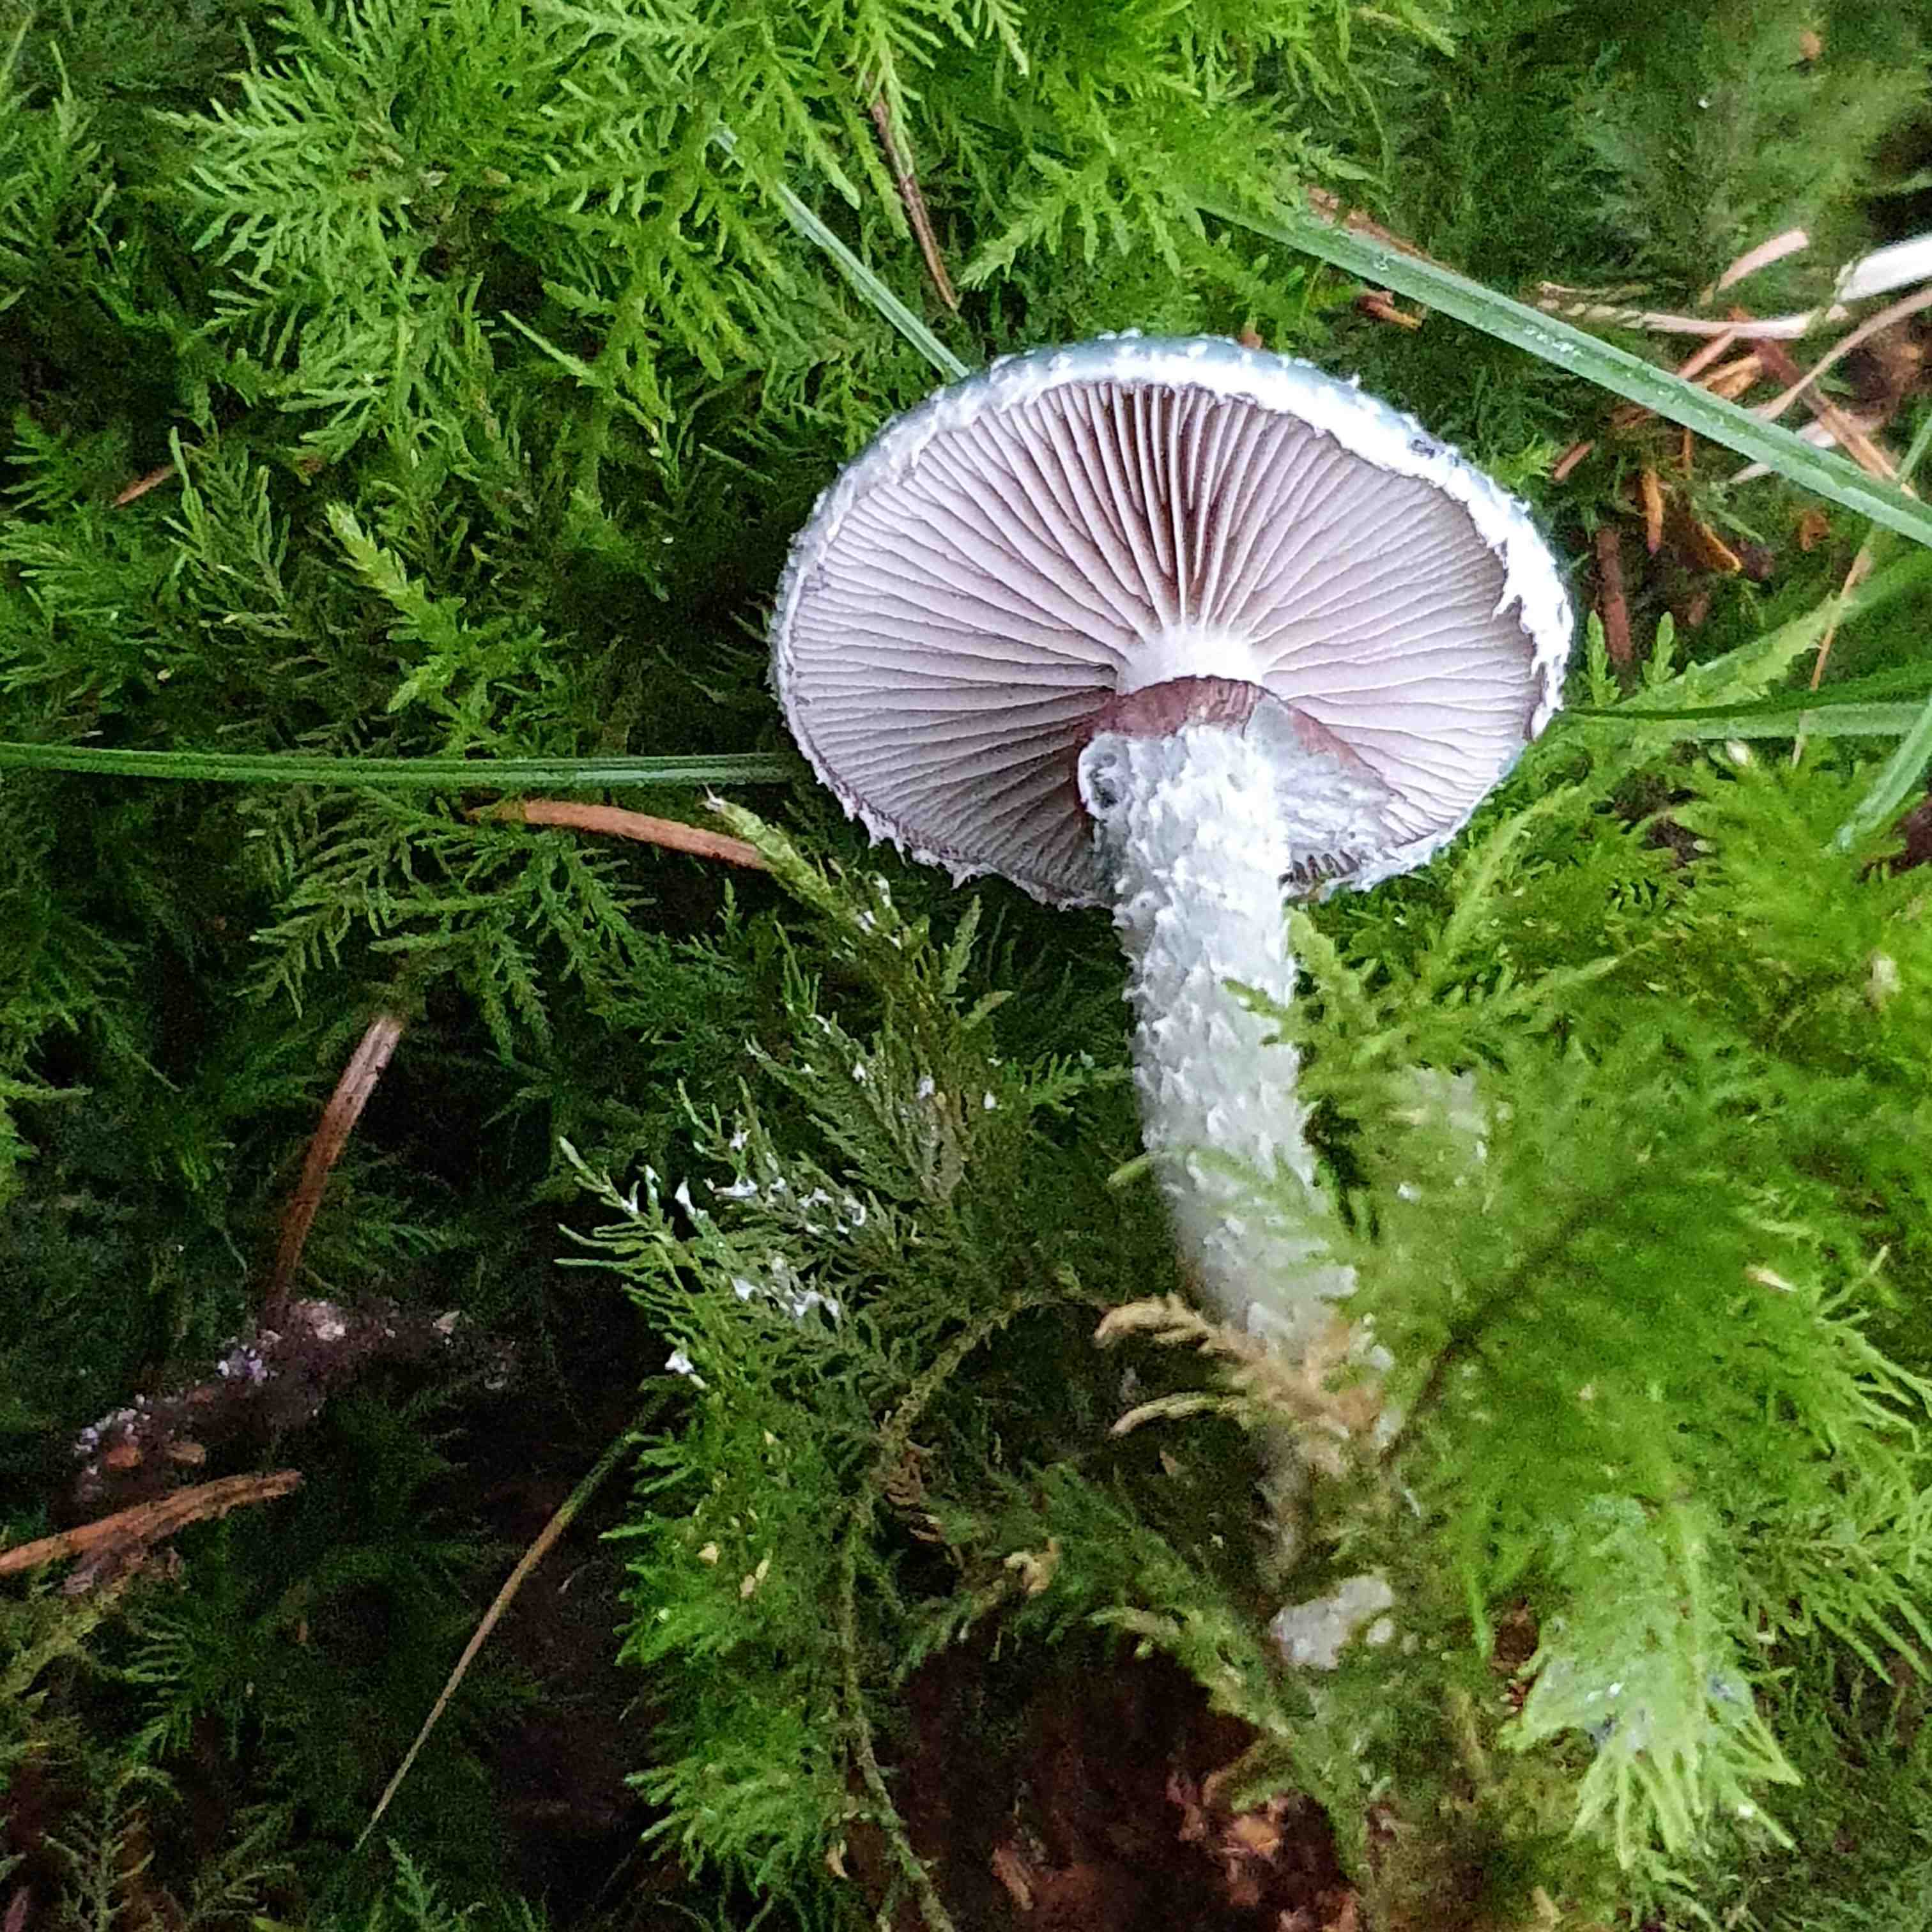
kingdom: Fungi
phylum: Basidiomycota
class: Agaricomycetes
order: Agaricales
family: Strophariaceae
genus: Stropharia
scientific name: Stropharia aeruginosa
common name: spanskgrøn bredblad
